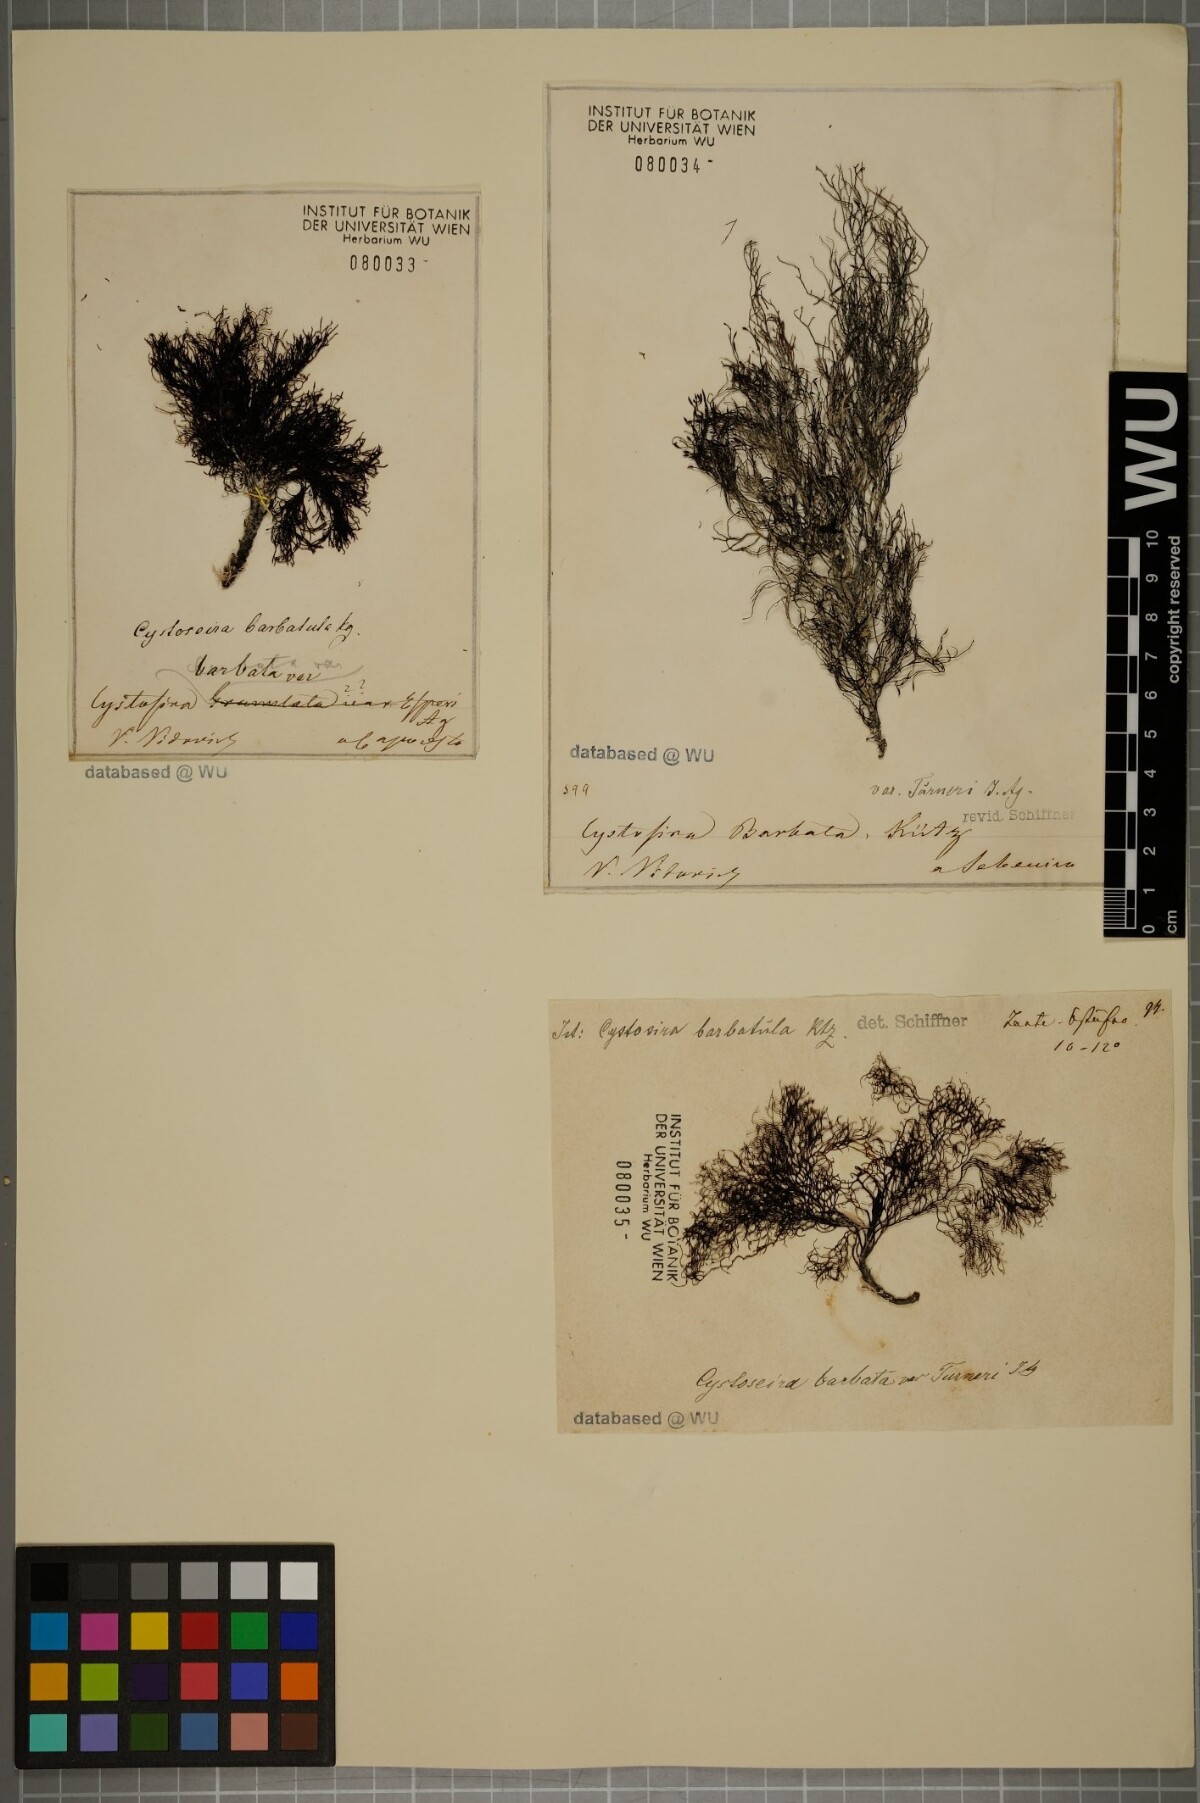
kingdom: Chromista
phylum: Ochrophyta
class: Phaeophyceae
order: Fucales
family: Sargassaceae
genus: Cystoseira
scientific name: Cystoseira Gongolaria barbata
